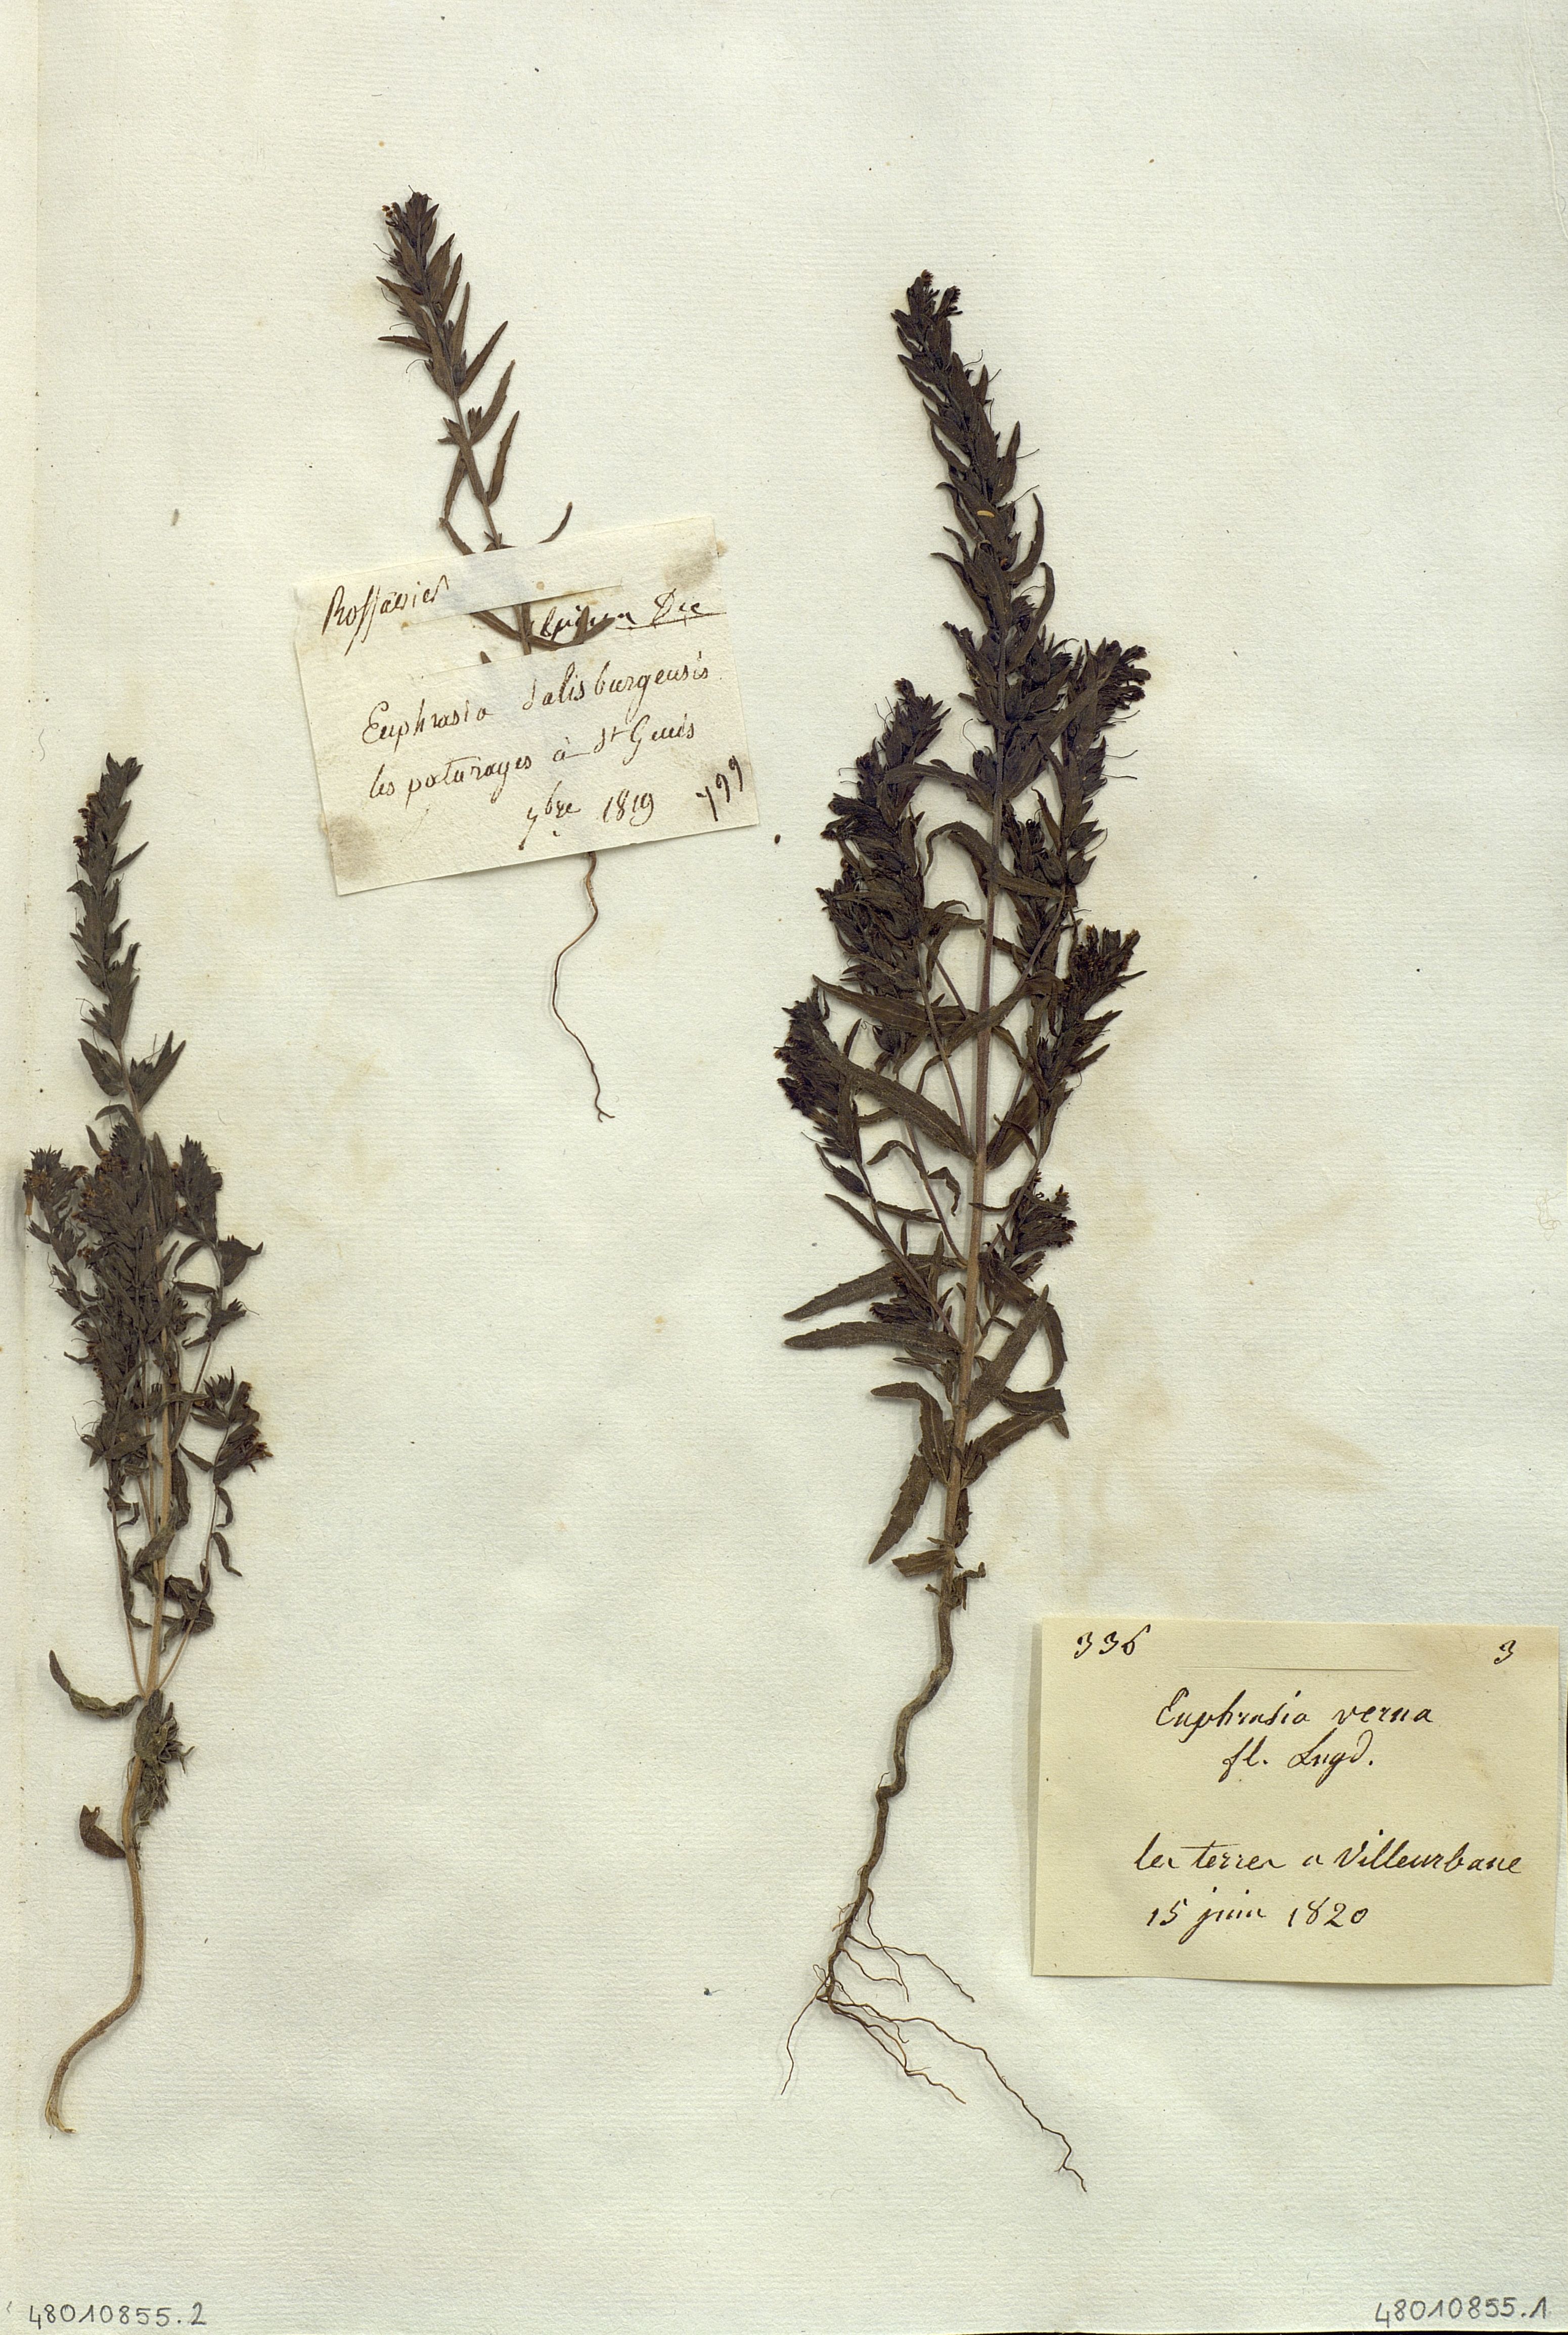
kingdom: Plantae
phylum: Tracheophyta
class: Magnoliopsida
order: Lamiales
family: Orobanchaceae
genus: Euphrasia
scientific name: Euphrasia salisburgensis
